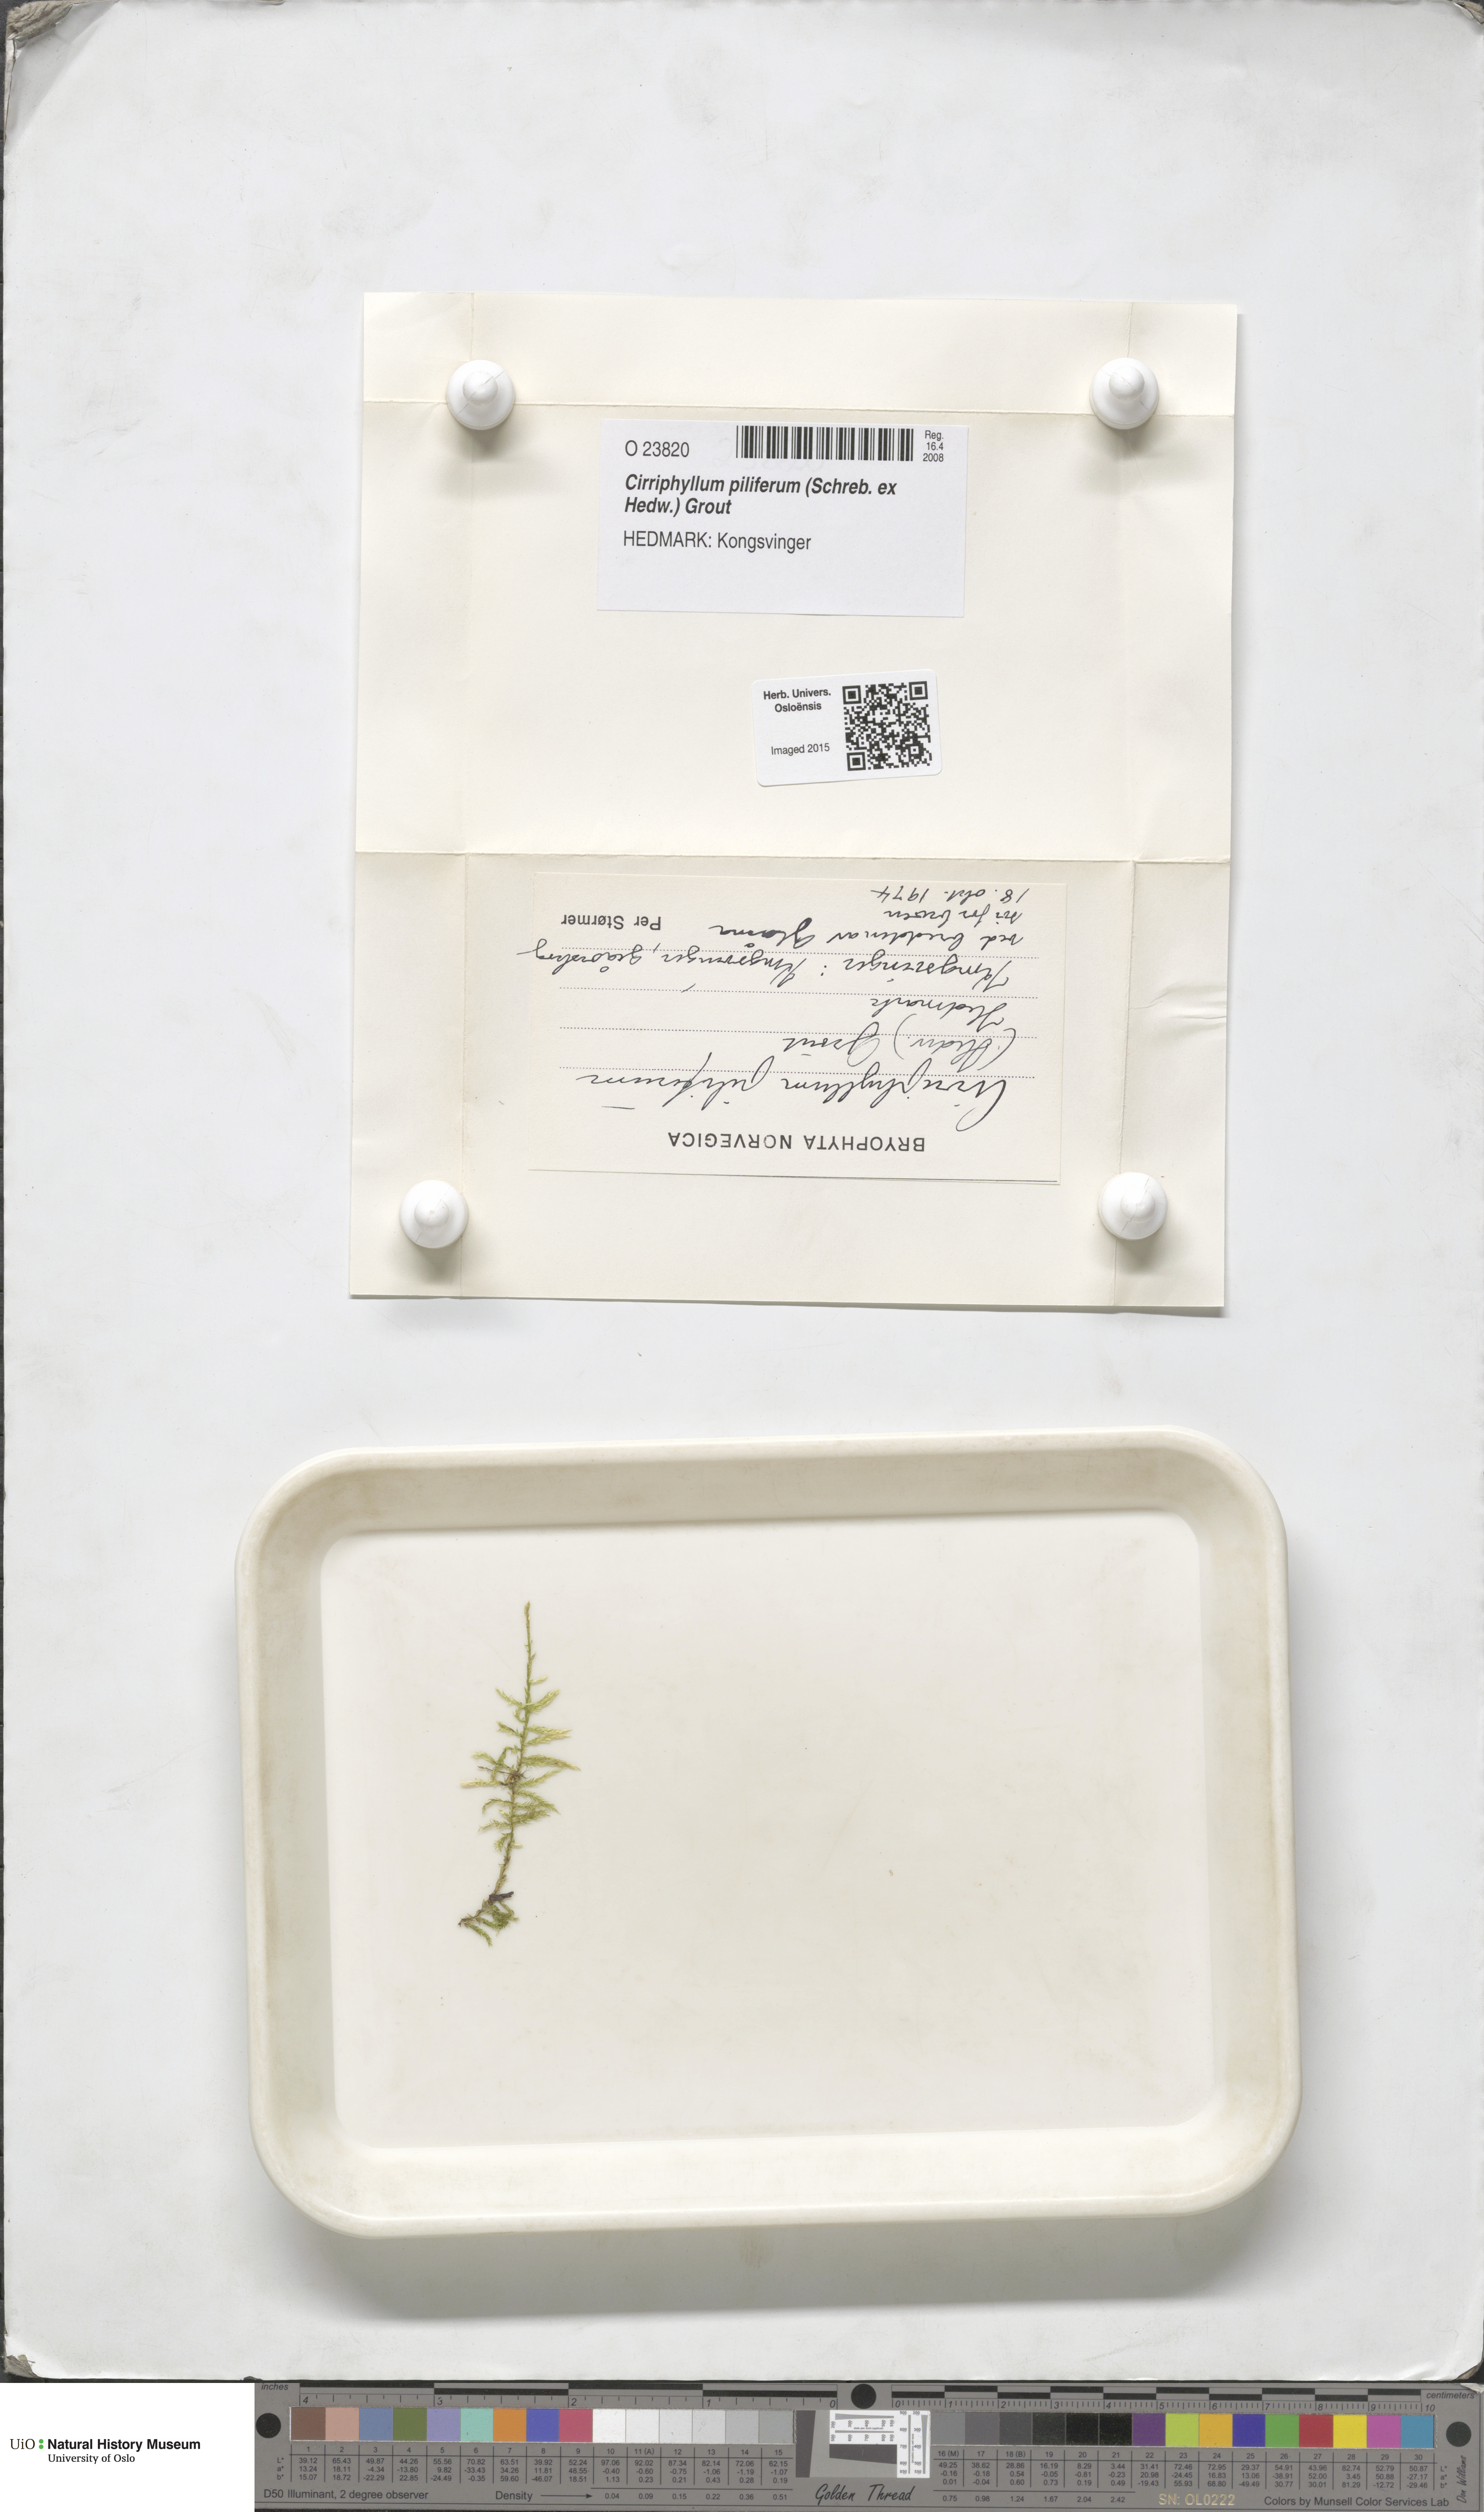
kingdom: Plantae
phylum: Bryophyta
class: Bryopsida
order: Hypnales
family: Brachytheciaceae
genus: Cirriphyllum
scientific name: Cirriphyllum piliferum
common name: Hair-pointed moss
